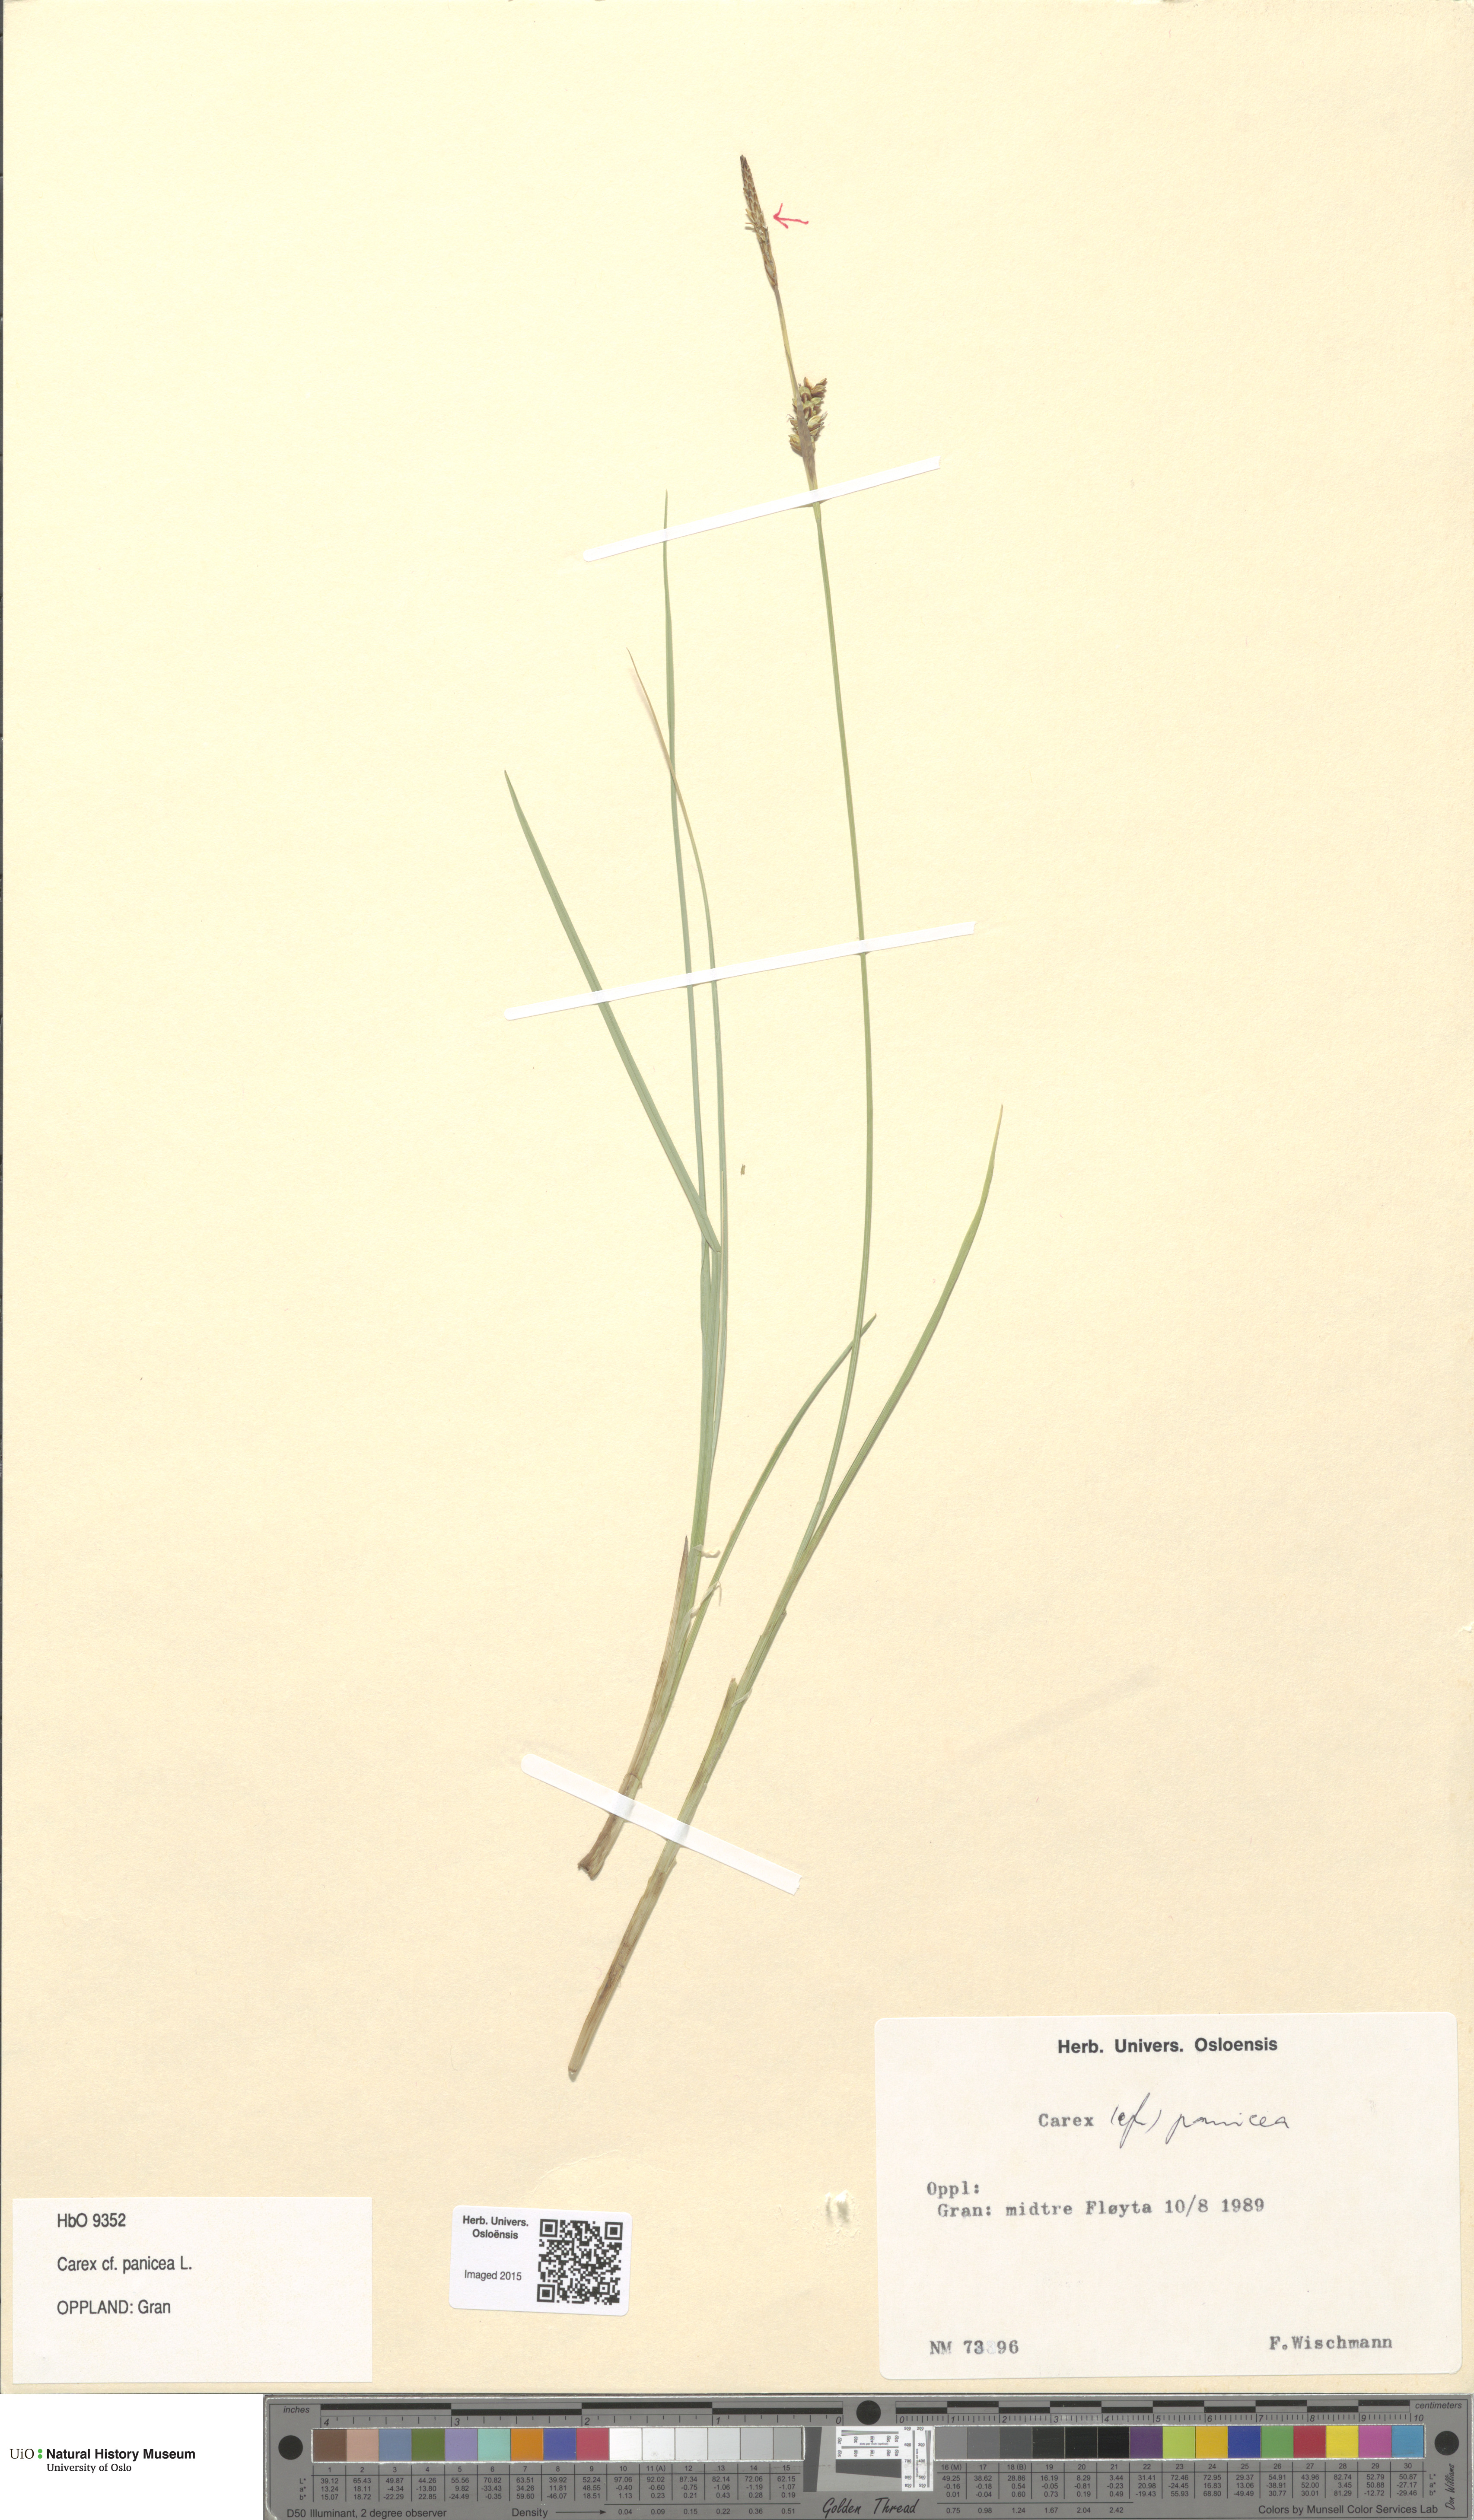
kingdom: Plantae
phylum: Tracheophyta
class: Liliopsida
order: Poales
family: Cyperaceae
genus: Carex
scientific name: Carex panicea
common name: Carnation sedge
